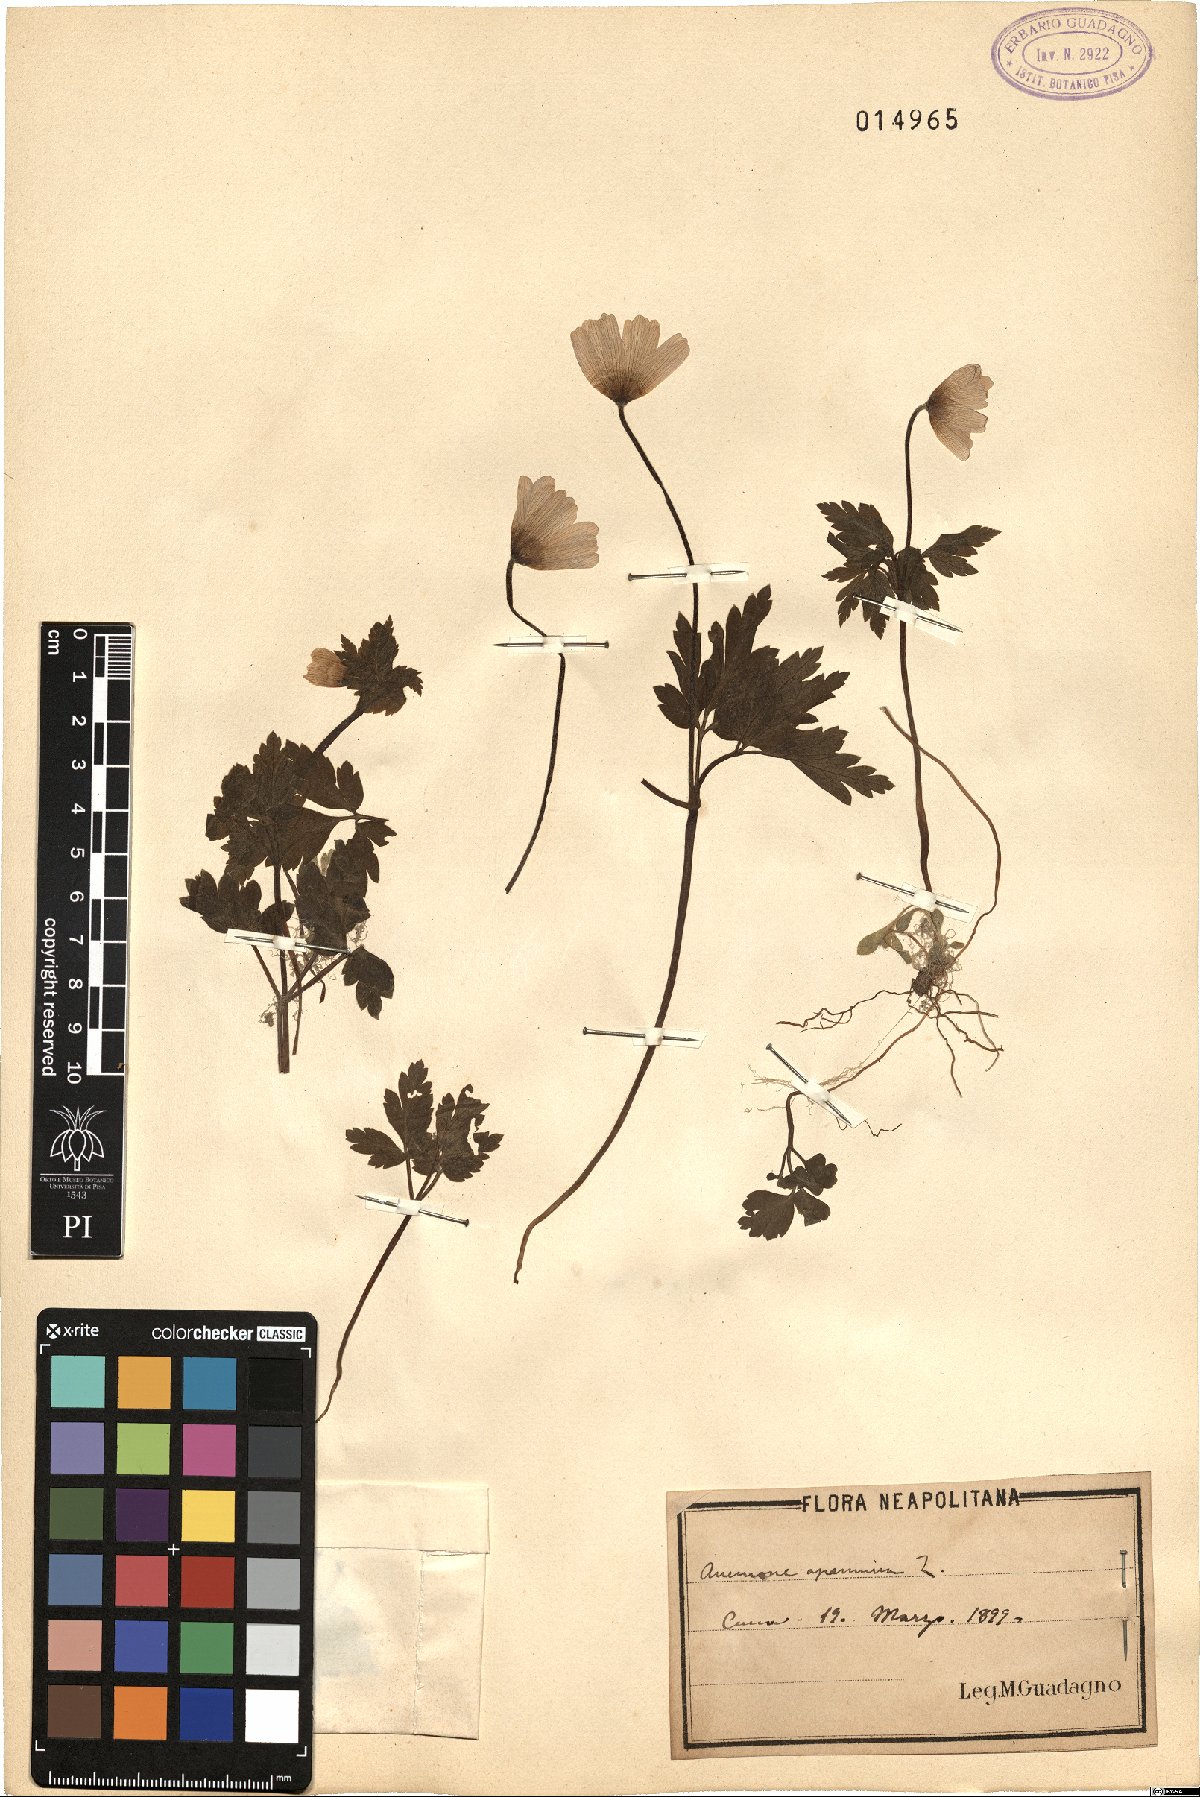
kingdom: Plantae
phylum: Tracheophyta
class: Magnoliopsida
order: Ranunculales
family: Ranunculaceae
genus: Anemone
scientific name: Anemone apennina
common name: Blue anemone
